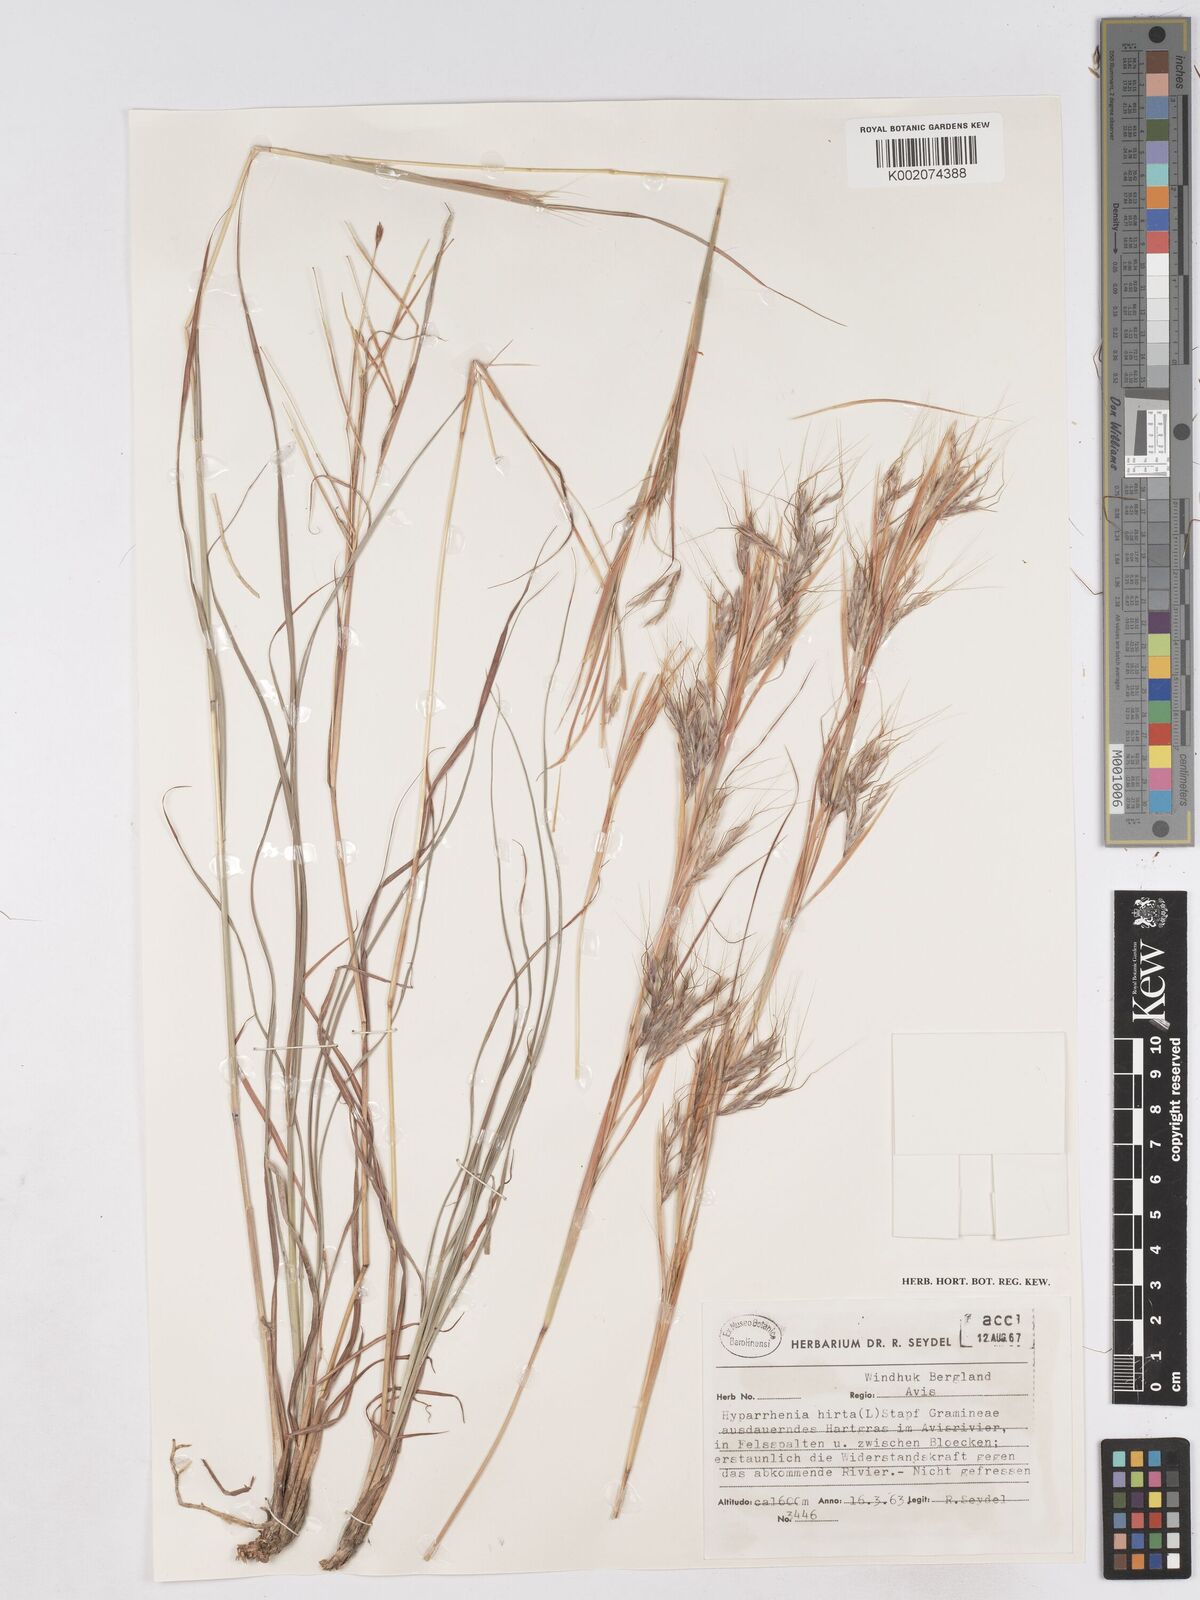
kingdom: Plantae
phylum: Tracheophyta
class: Liliopsida
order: Poales
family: Poaceae
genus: Hyparrhenia
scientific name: Hyparrhenia hirta
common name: Thatching grass
